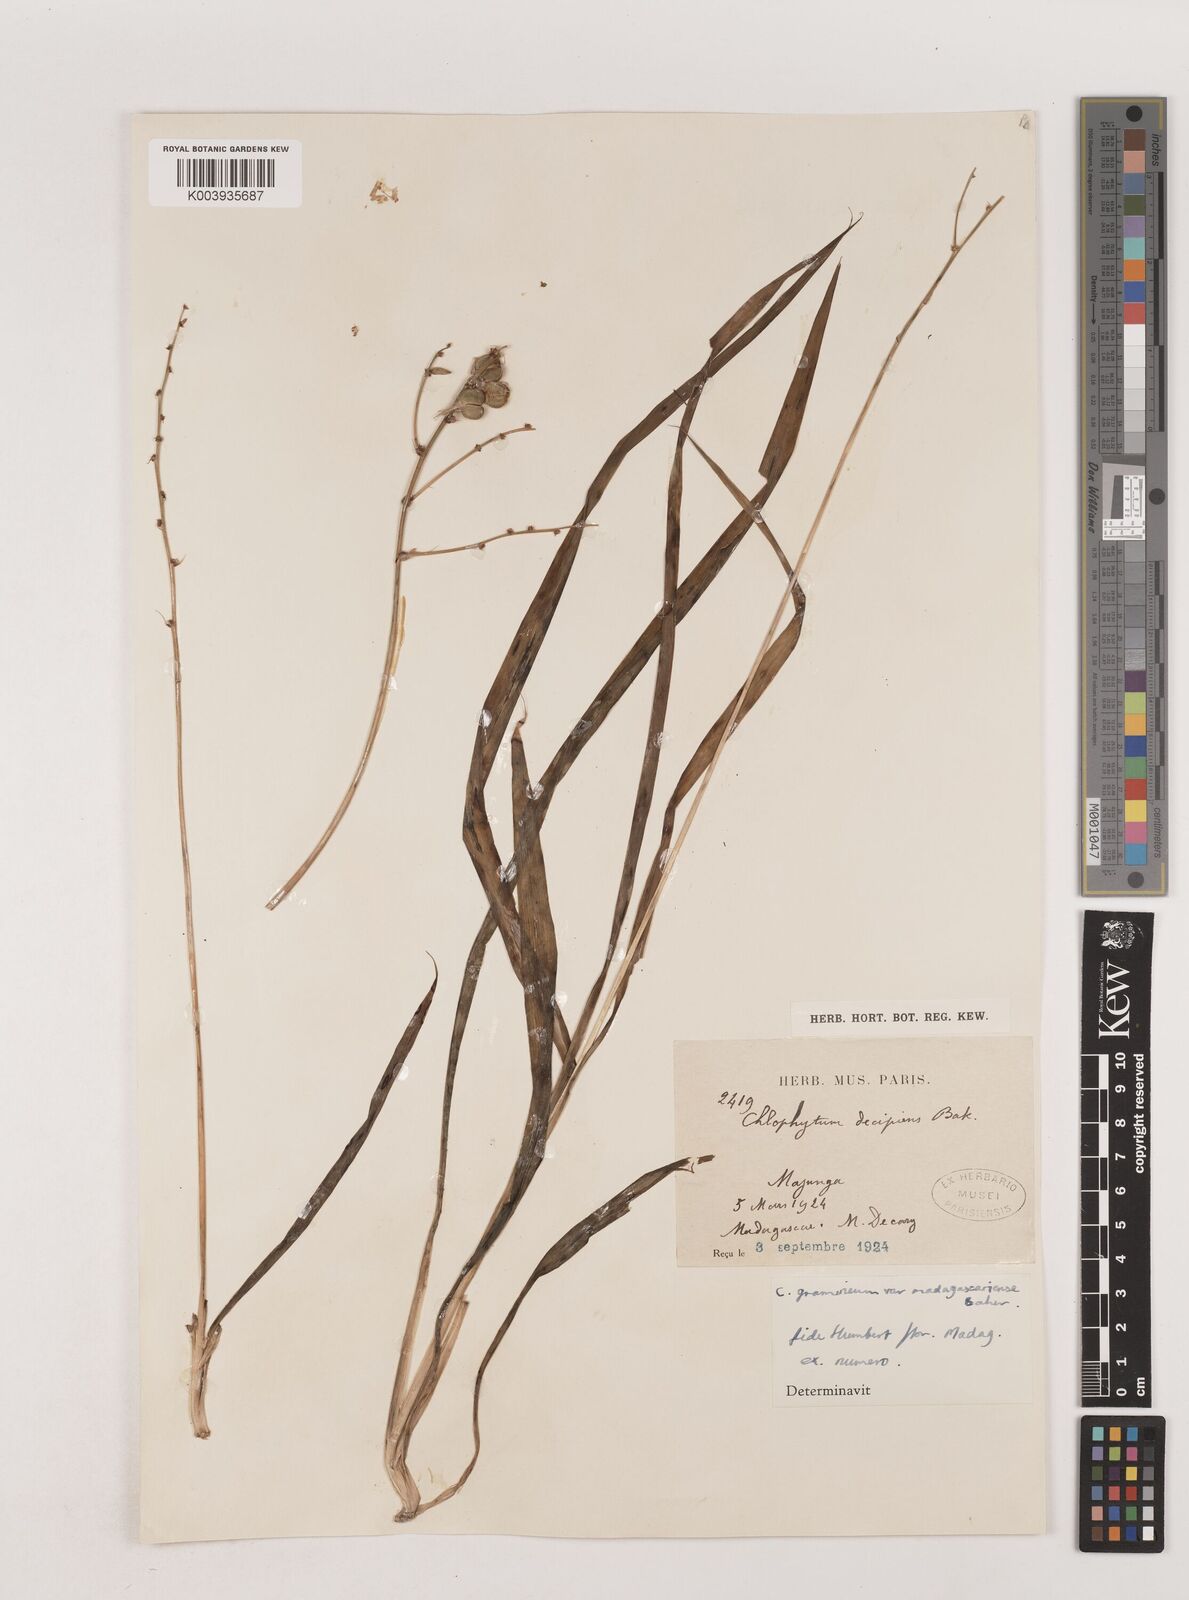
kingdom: Plantae
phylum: Tracheophyta
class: Liliopsida
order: Asparagales
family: Asparagaceae
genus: Chlorophytum
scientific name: Chlorophytum madagascariense
